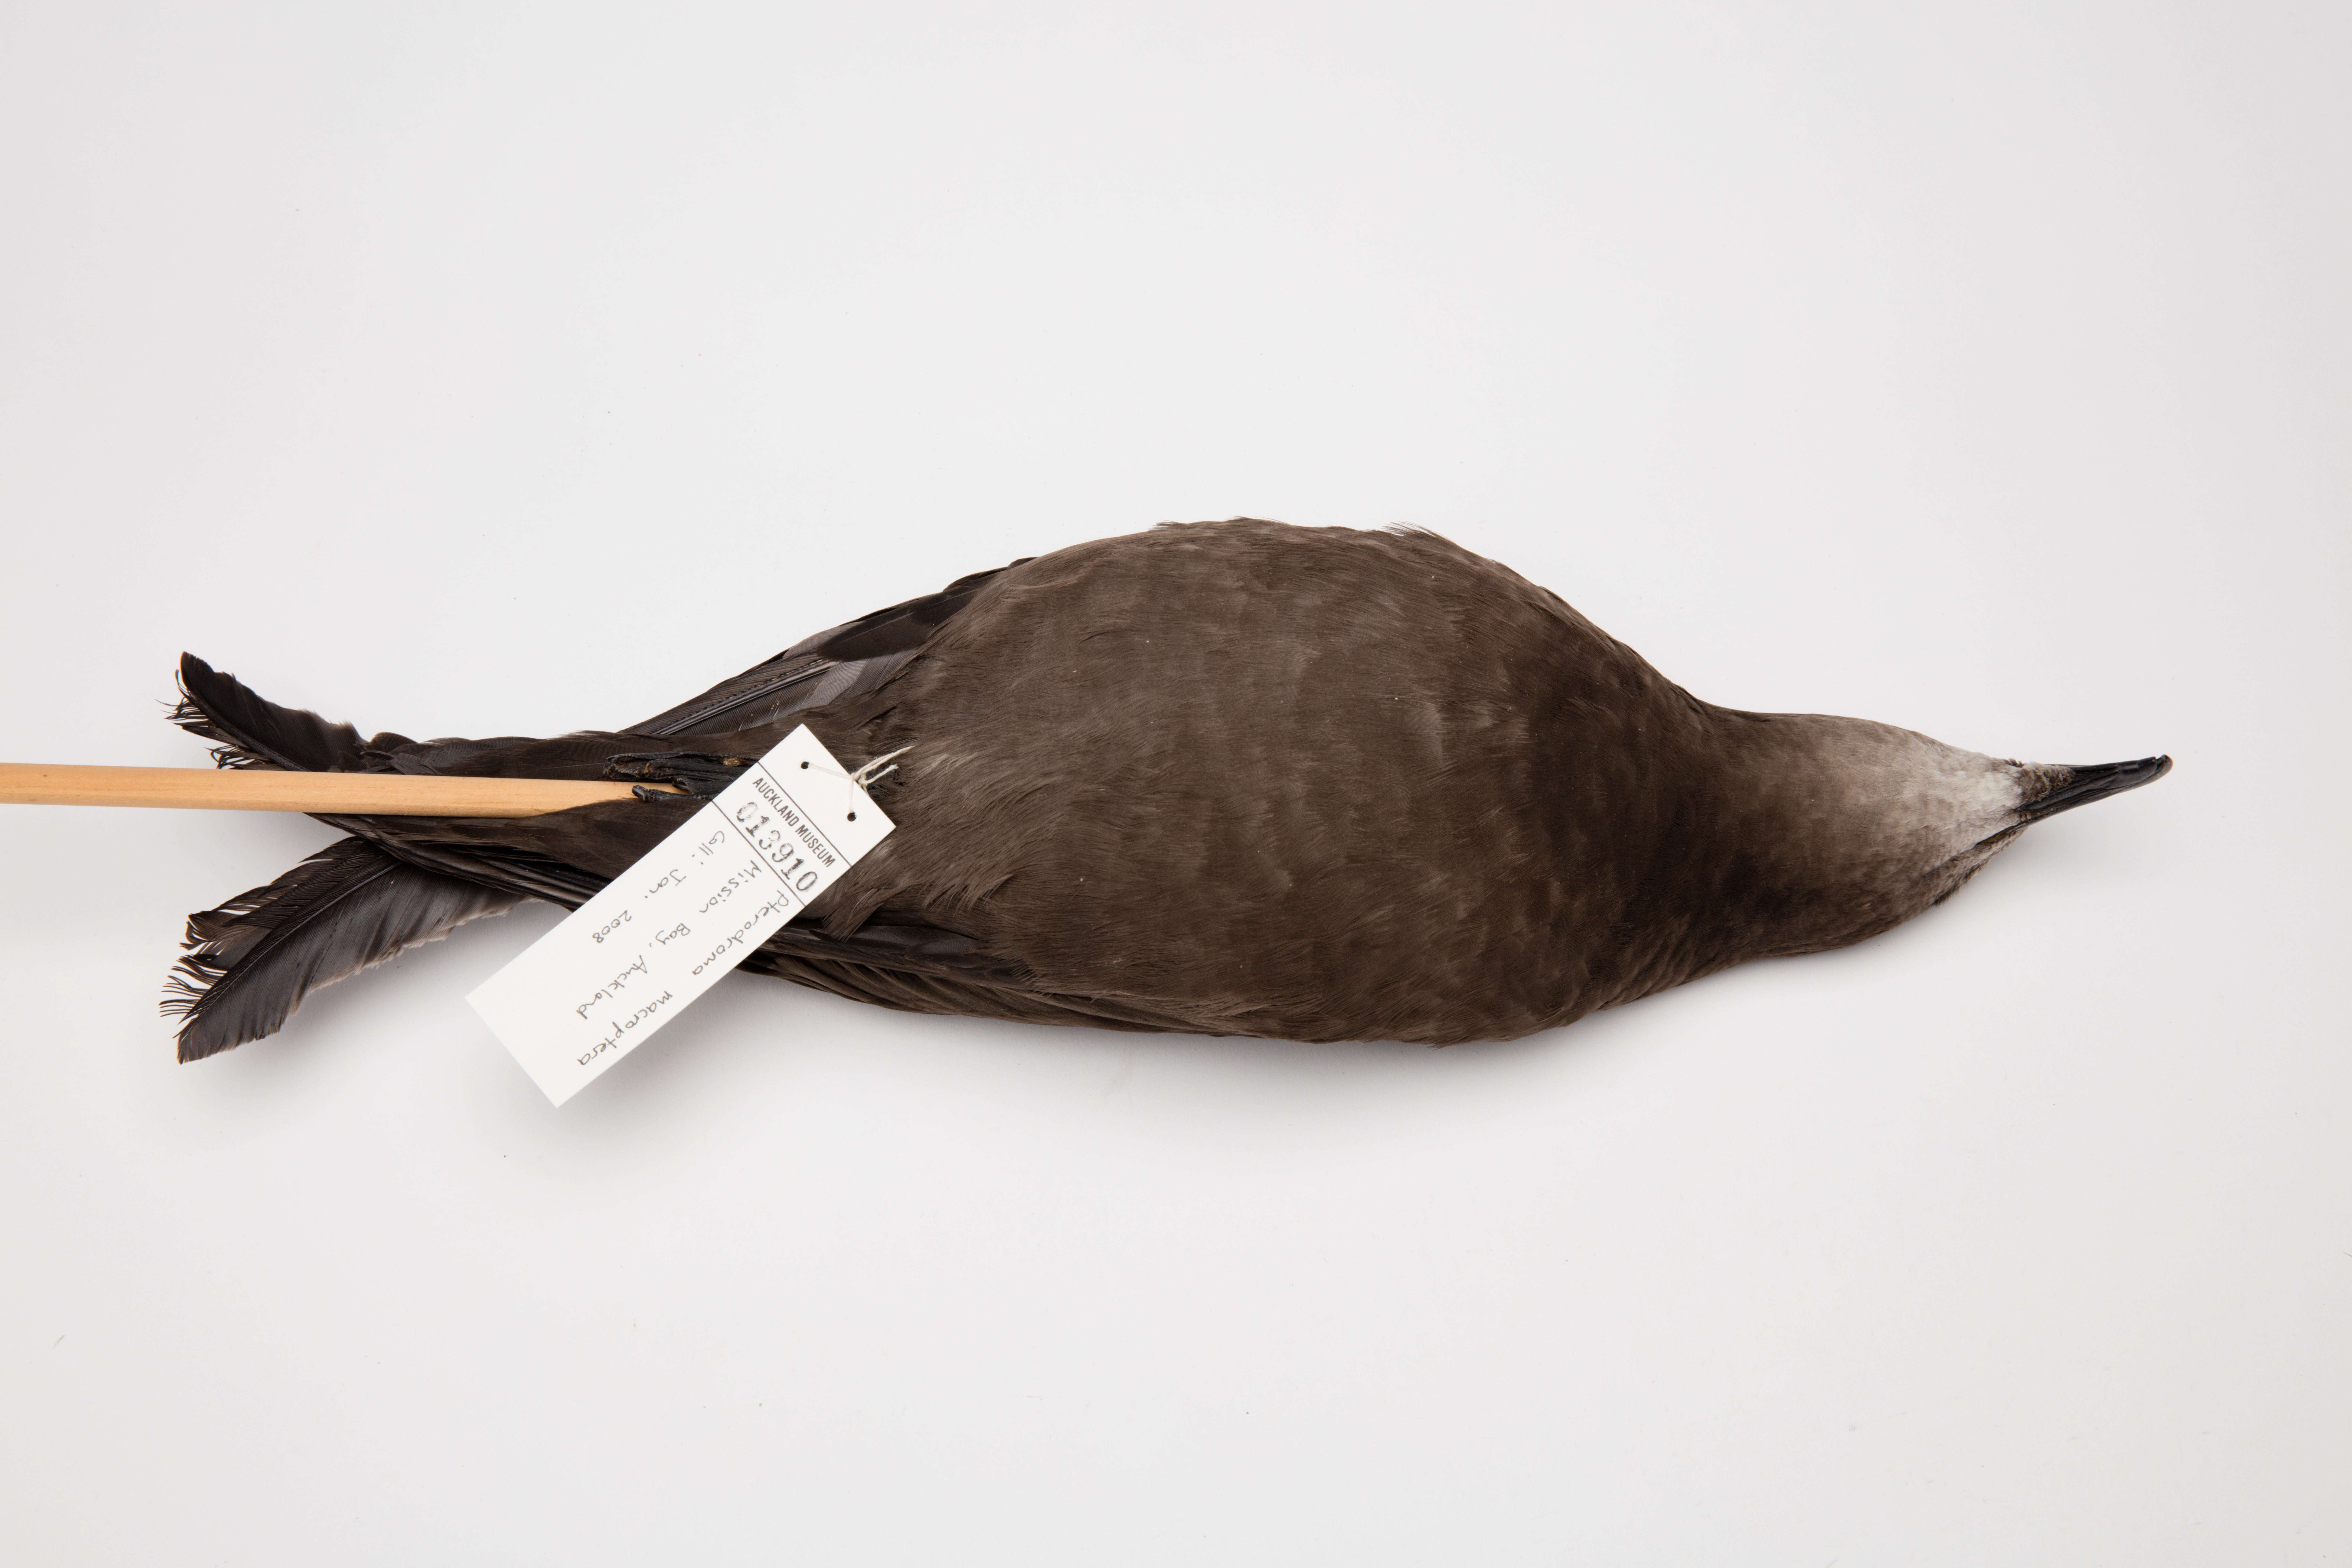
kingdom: Animalia
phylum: Chordata
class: Aves
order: Procellariiformes
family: Procellariidae
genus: Pterodroma
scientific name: Pterodroma macroptera
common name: Great-winged petrel
